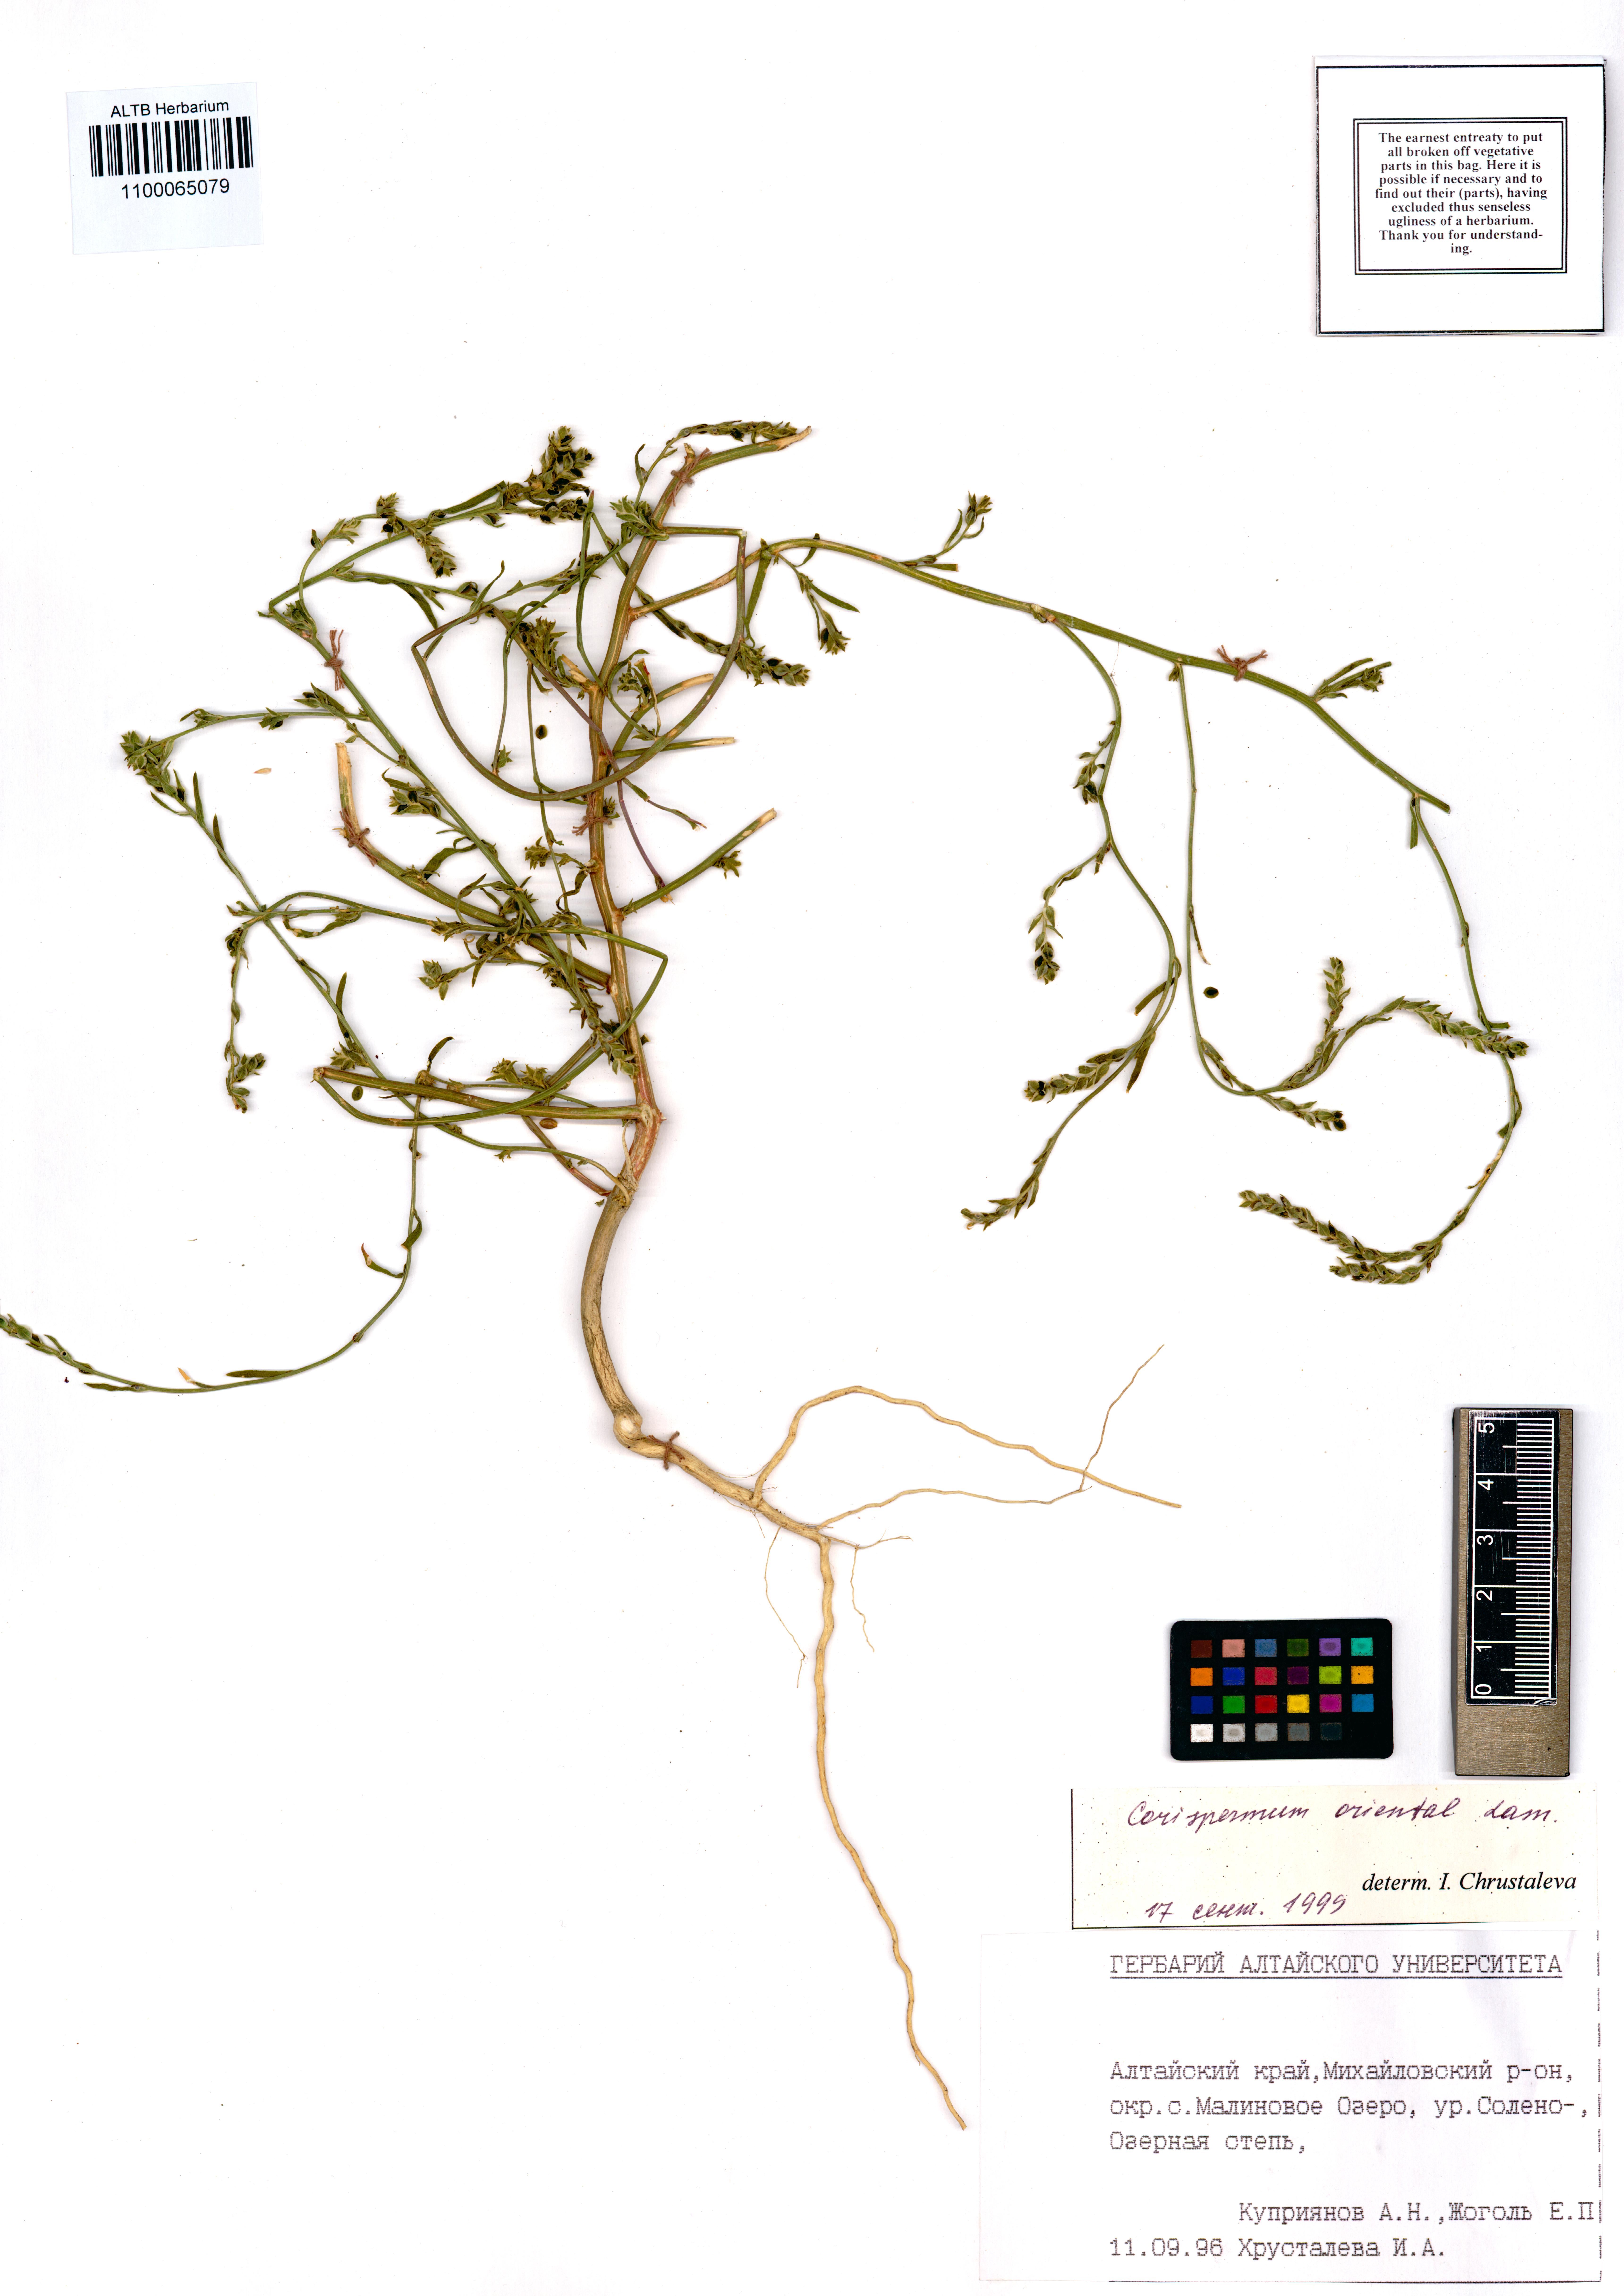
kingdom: Plantae
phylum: Tracheophyta
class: Magnoliopsida
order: Caryophyllales
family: Amaranthaceae
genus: Corispermum
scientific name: Corispermum aralocaspicum
